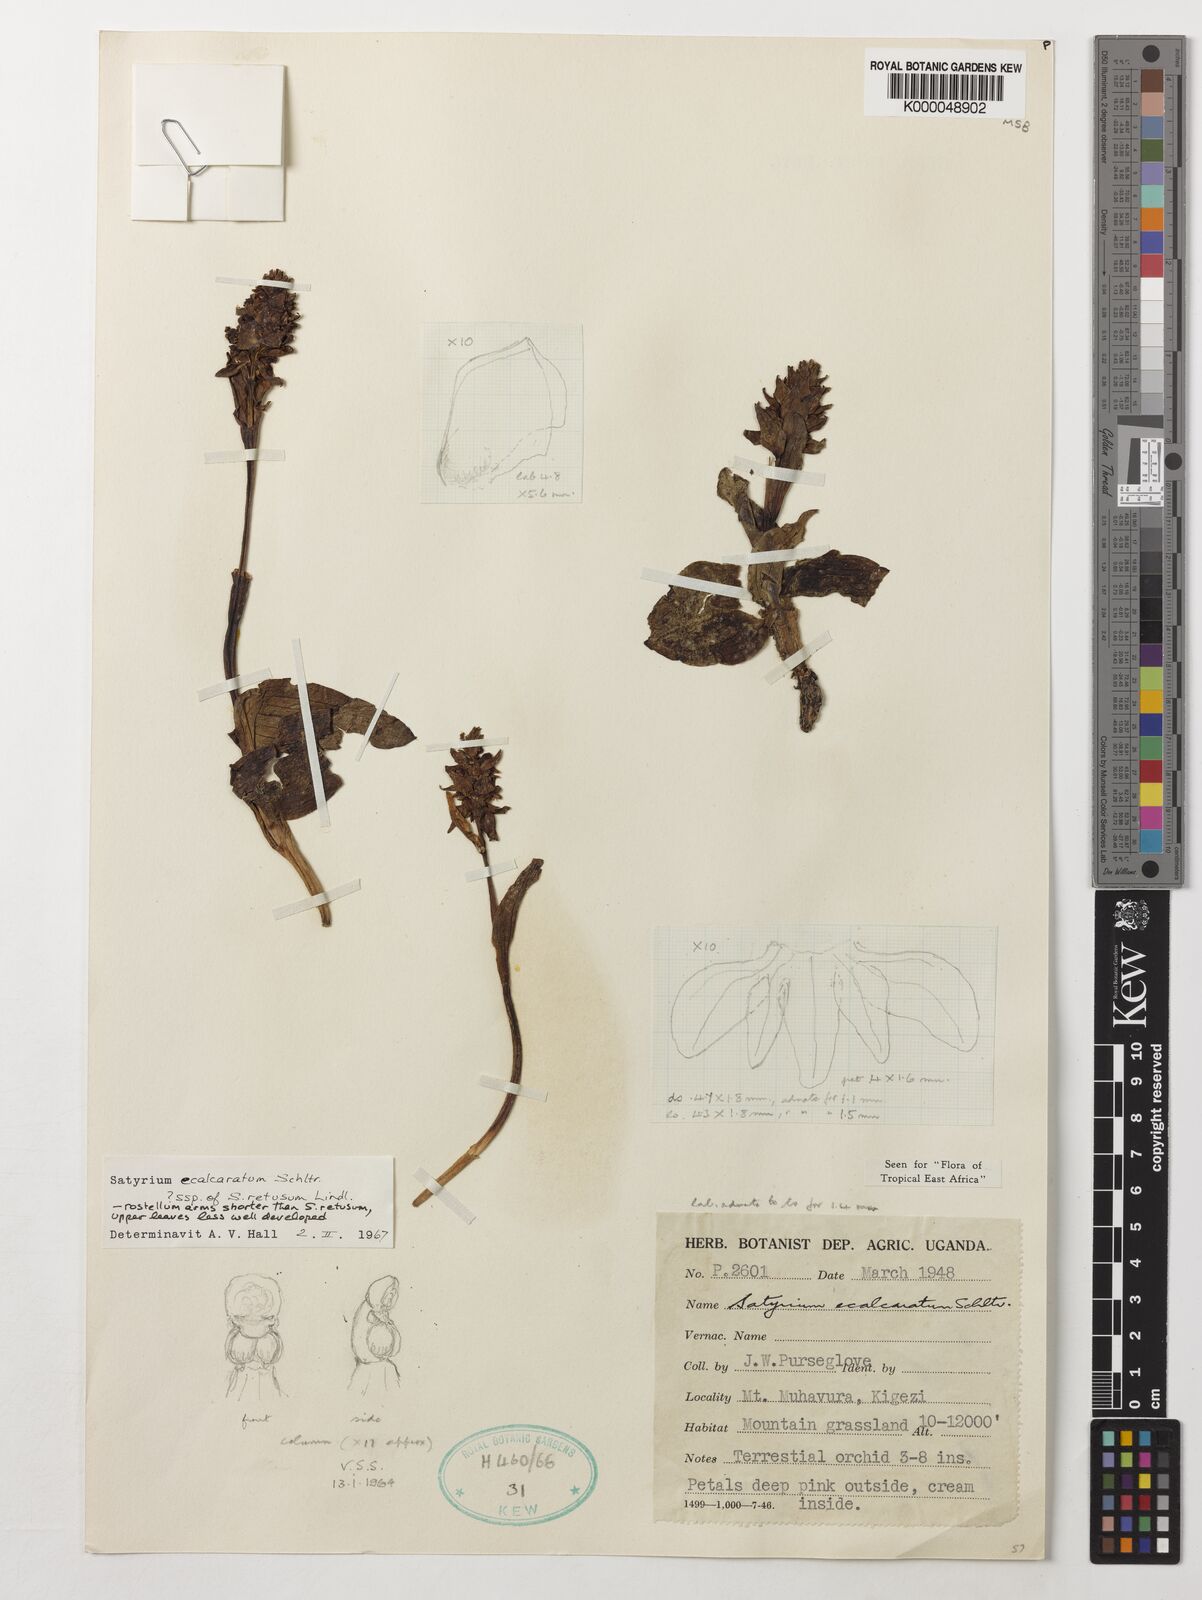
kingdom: Plantae
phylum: Tracheophyta
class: Liliopsida
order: Asparagales
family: Orchidaceae
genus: Satyrium
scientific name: Satyrium ecalcaratum
